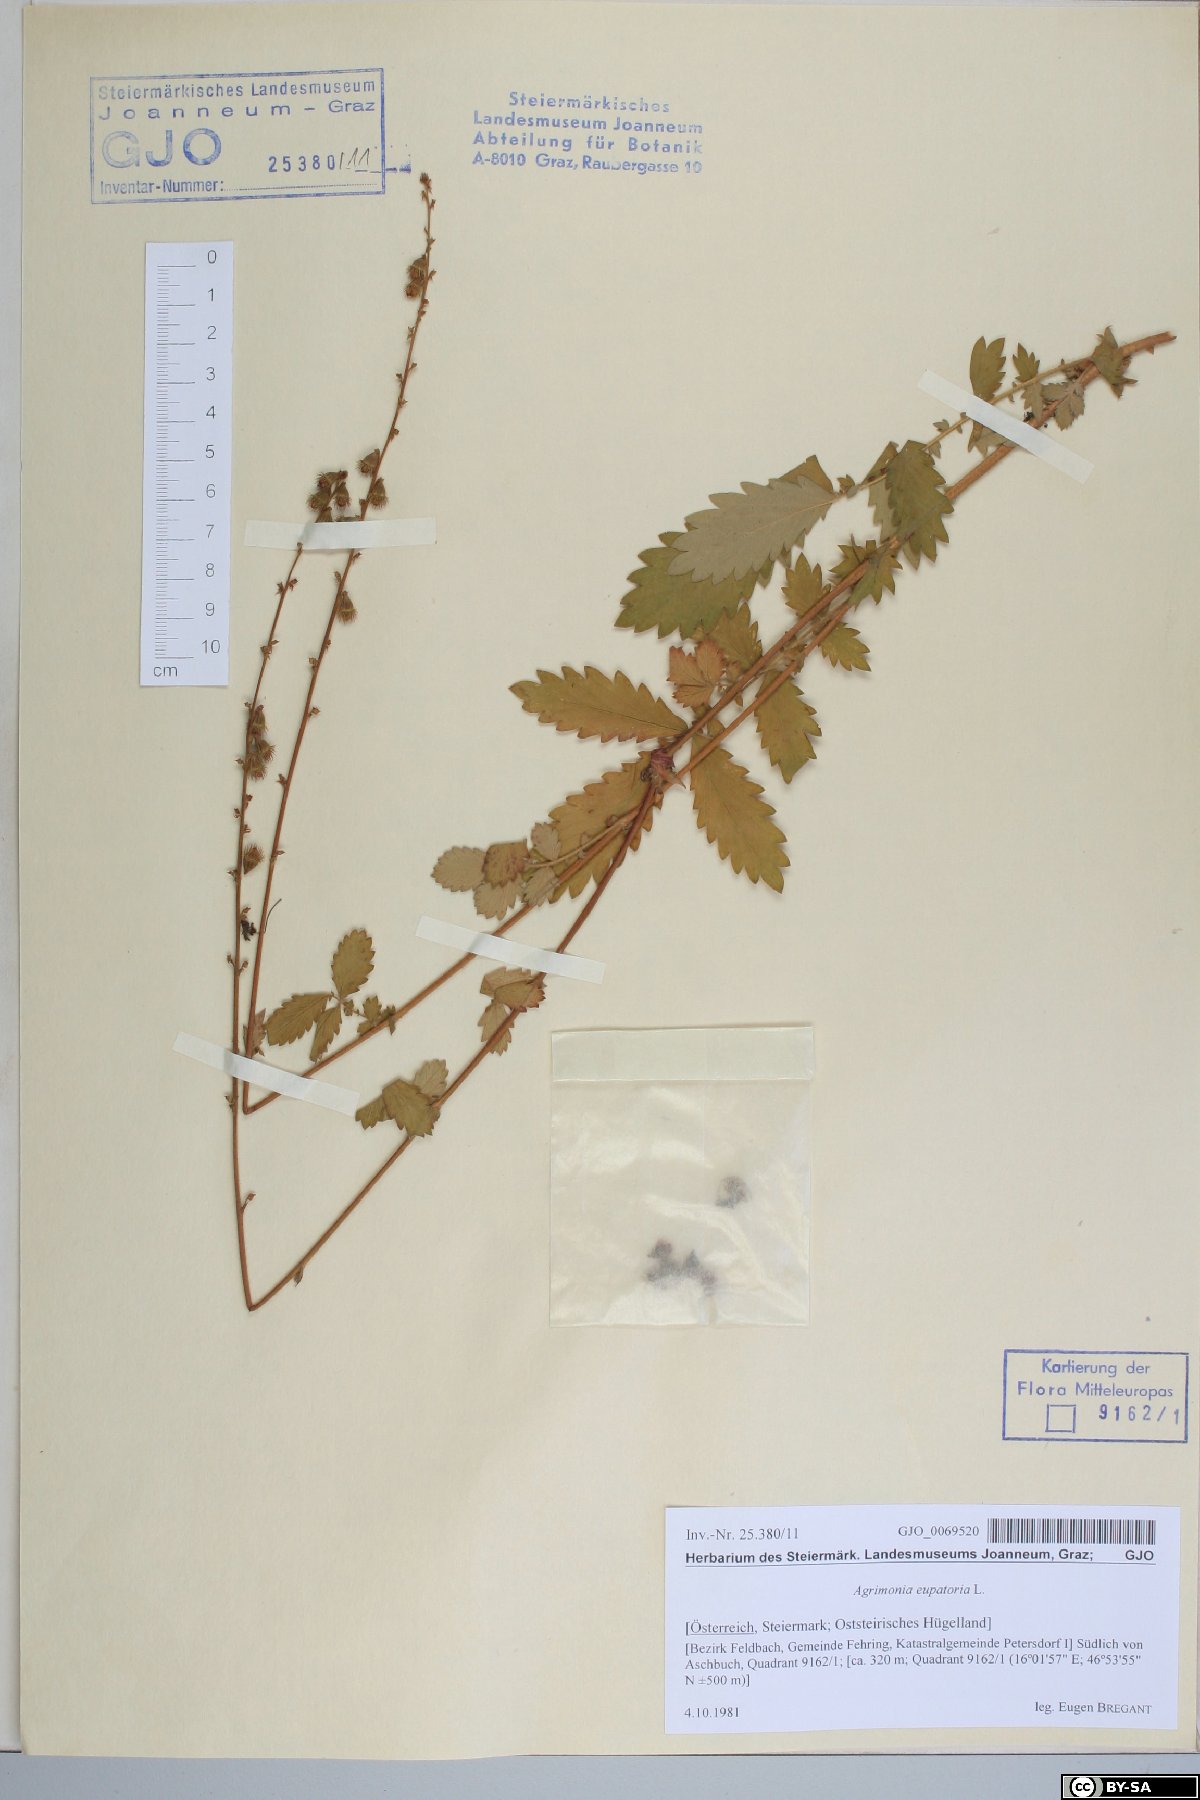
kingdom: Plantae
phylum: Tracheophyta
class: Magnoliopsida
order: Rosales
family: Rosaceae
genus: Agrimonia
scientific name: Agrimonia eupatoria
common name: Agrimony
